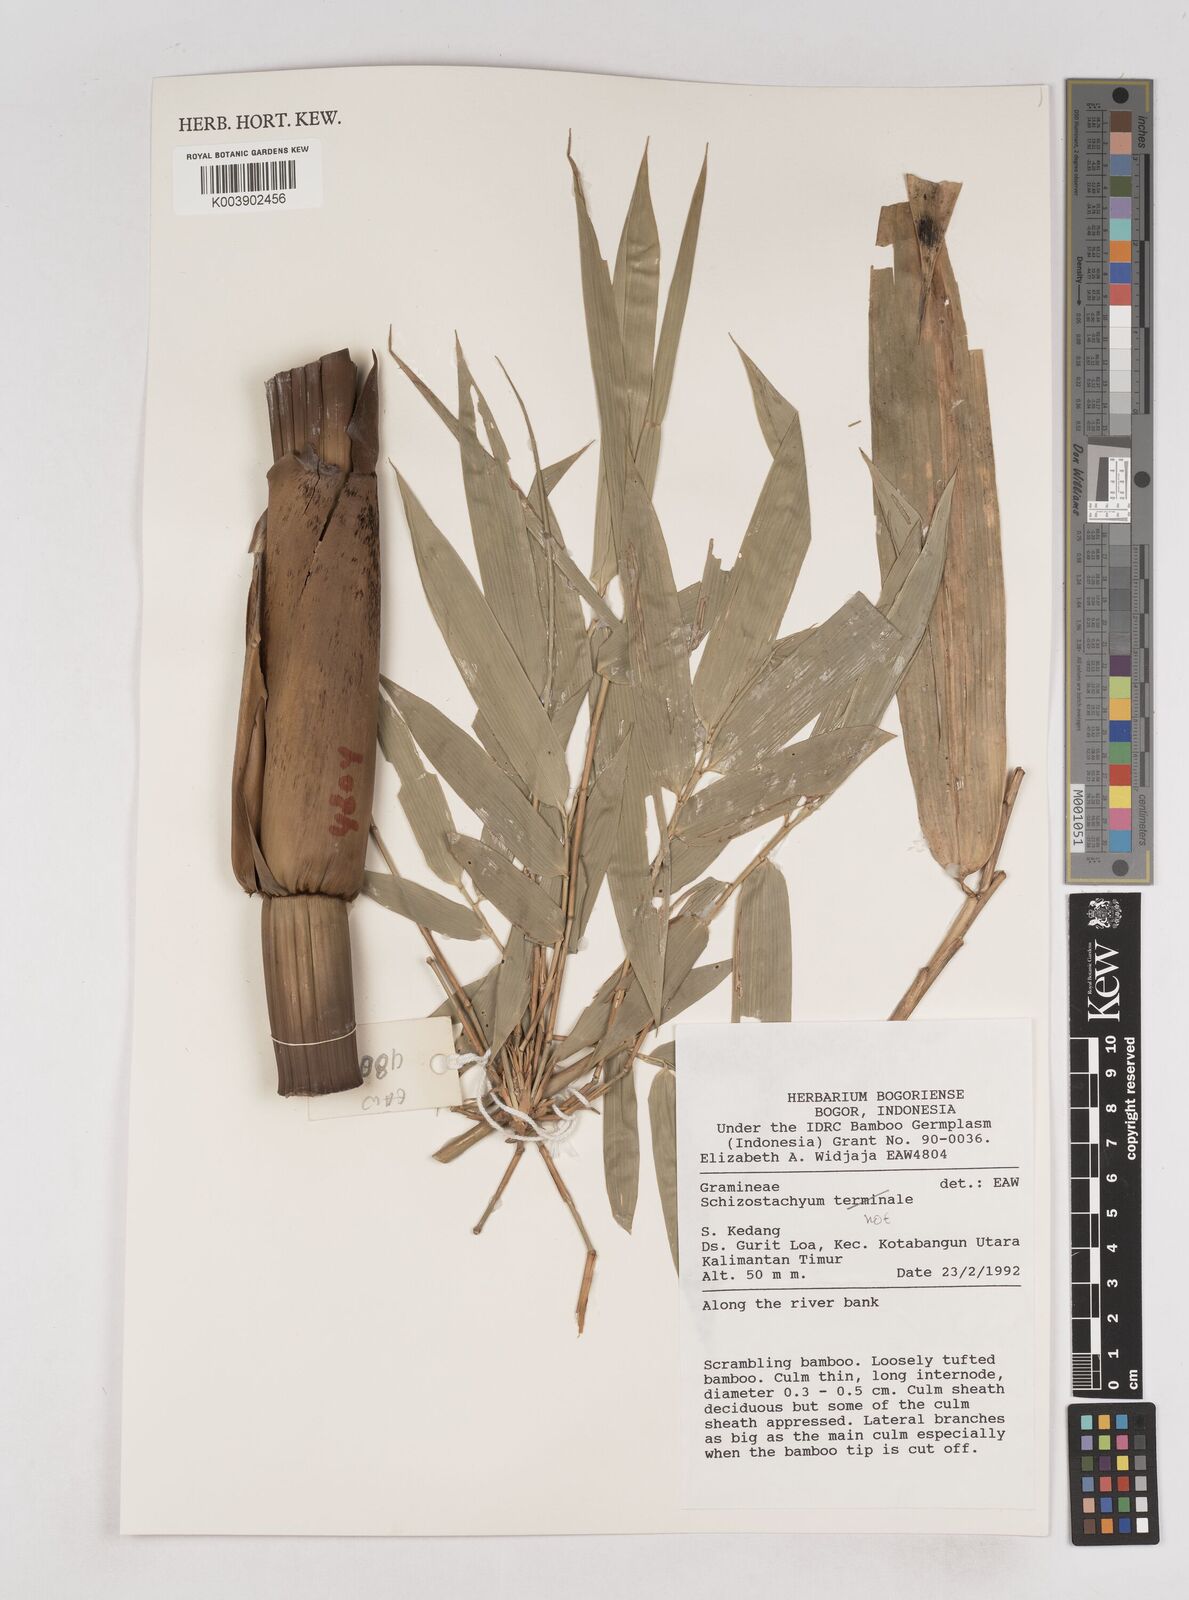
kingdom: Plantae
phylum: Tracheophyta
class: Liliopsida
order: Poales
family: Poaceae
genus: Schizostachyum
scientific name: Schizostachyum
